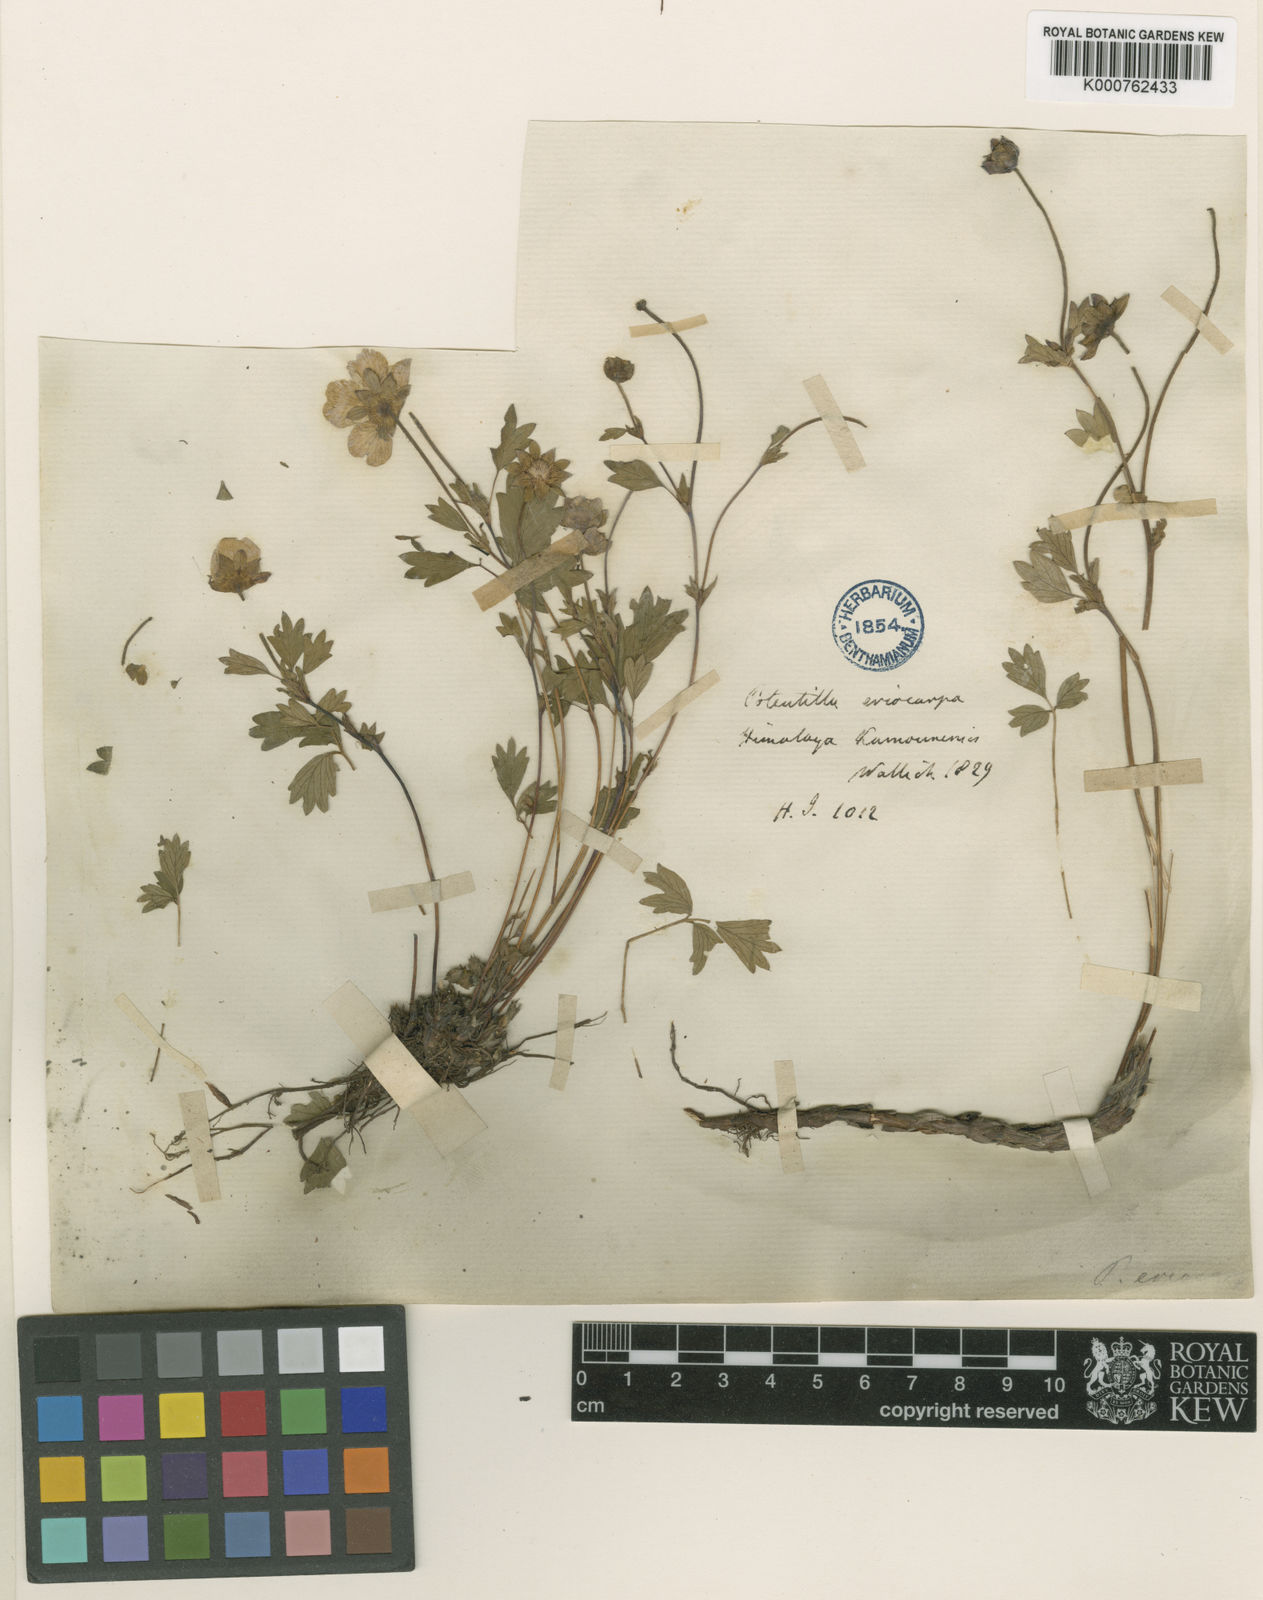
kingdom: Plantae
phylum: Tracheophyta
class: Magnoliopsida
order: Rosales
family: Rosaceae
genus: Potentilla
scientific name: Potentilla
